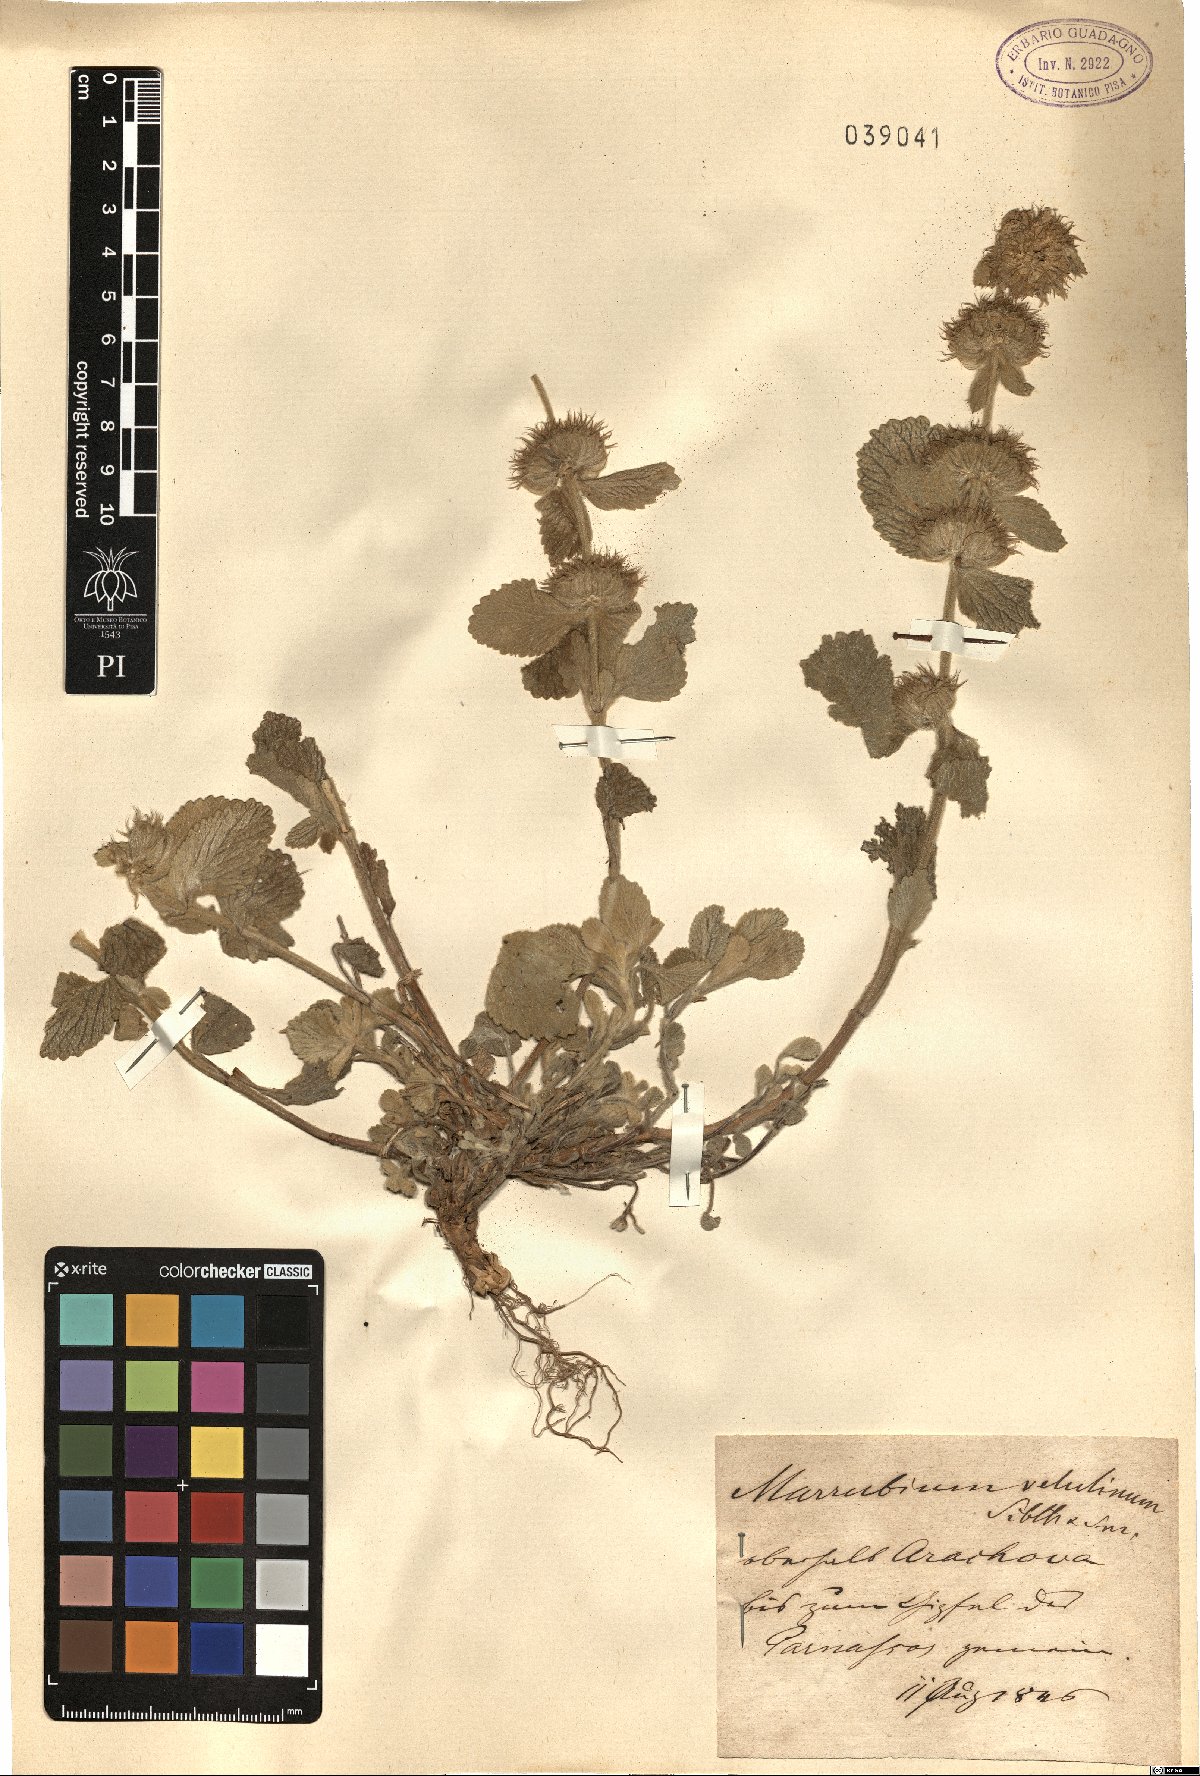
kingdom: Plantae
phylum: Tracheophyta
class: Magnoliopsida
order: Lamiales
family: Lamiaceae
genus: Marrubium
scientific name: Marrubium velutinum
